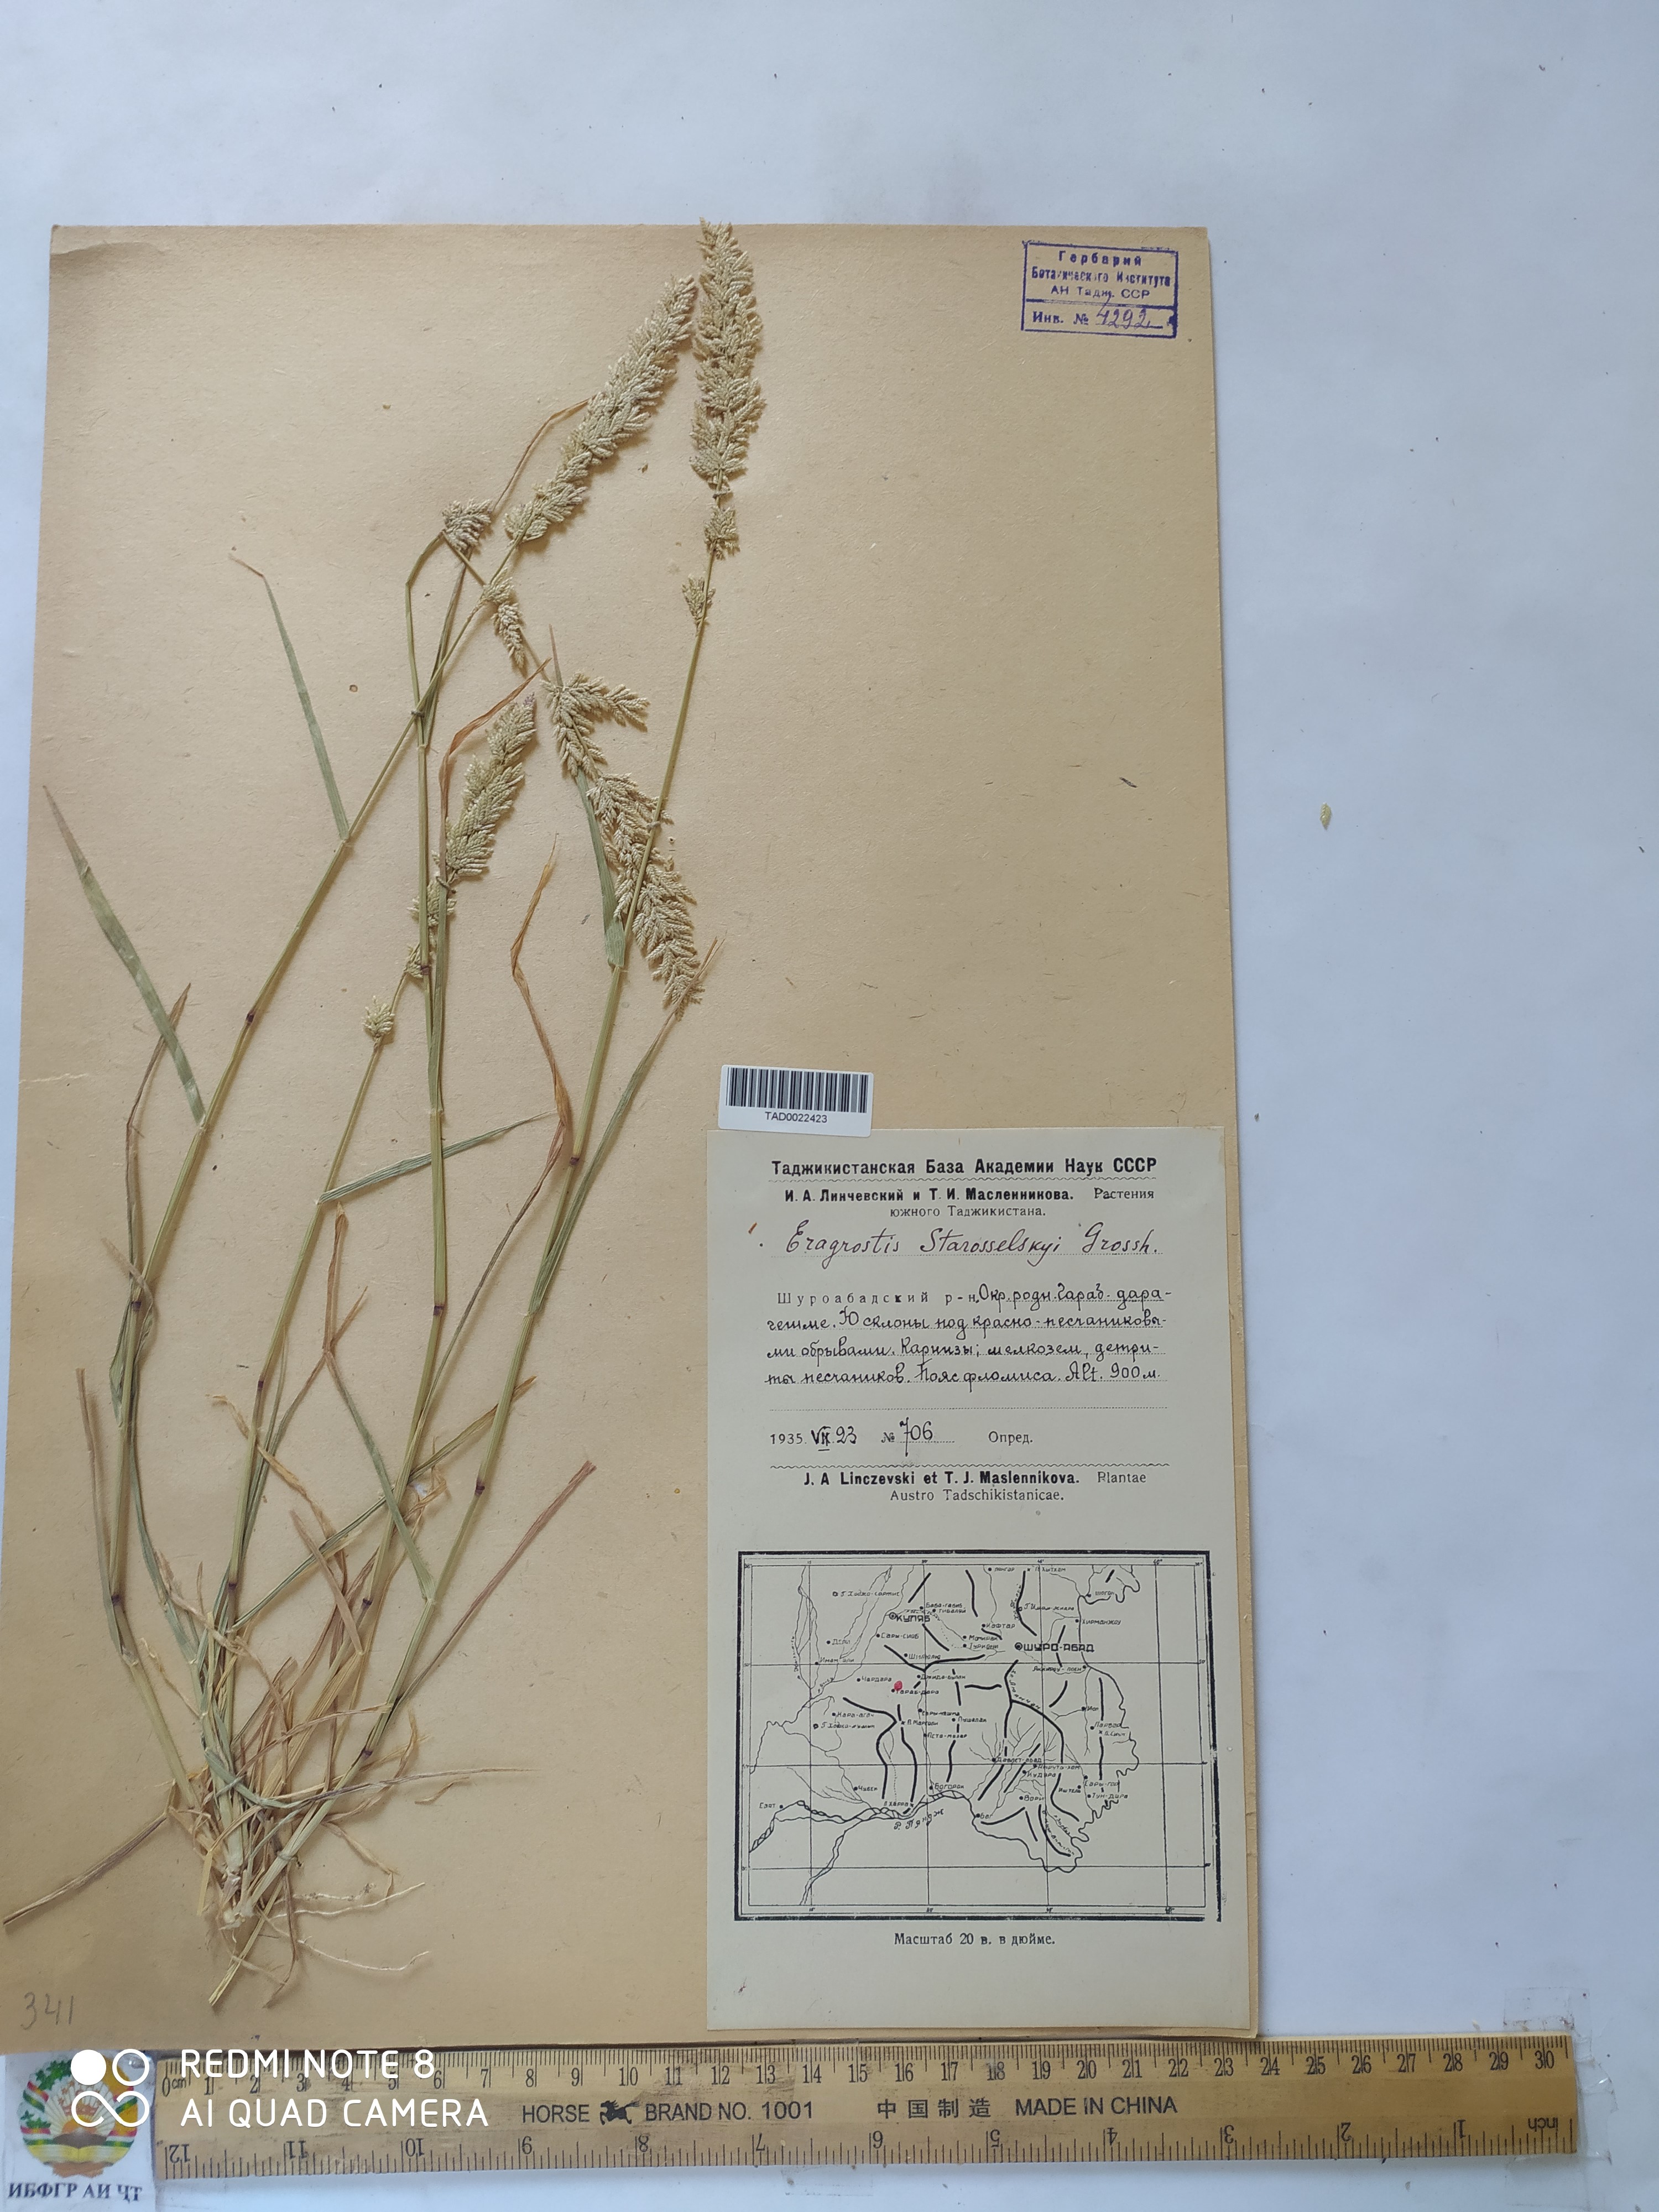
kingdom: Plantae
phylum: Tracheophyta
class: Liliopsida
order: Poales
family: Poaceae
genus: Eragrostis
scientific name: Eragrostis cilianensis
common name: Stinkgrass
